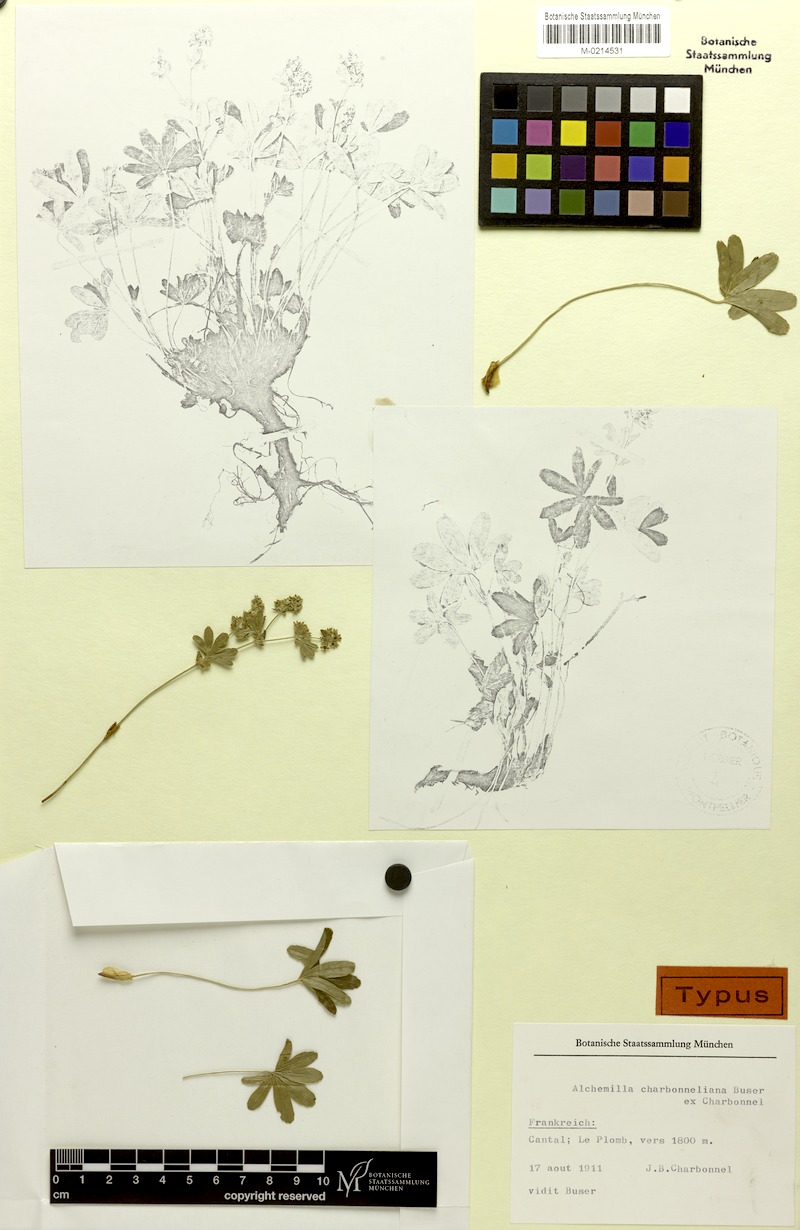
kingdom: Plantae
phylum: Tracheophyta
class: Magnoliopsida
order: Rosales
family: Rosaceae
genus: Alchemilla
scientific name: Alchemilla charbonneliana
